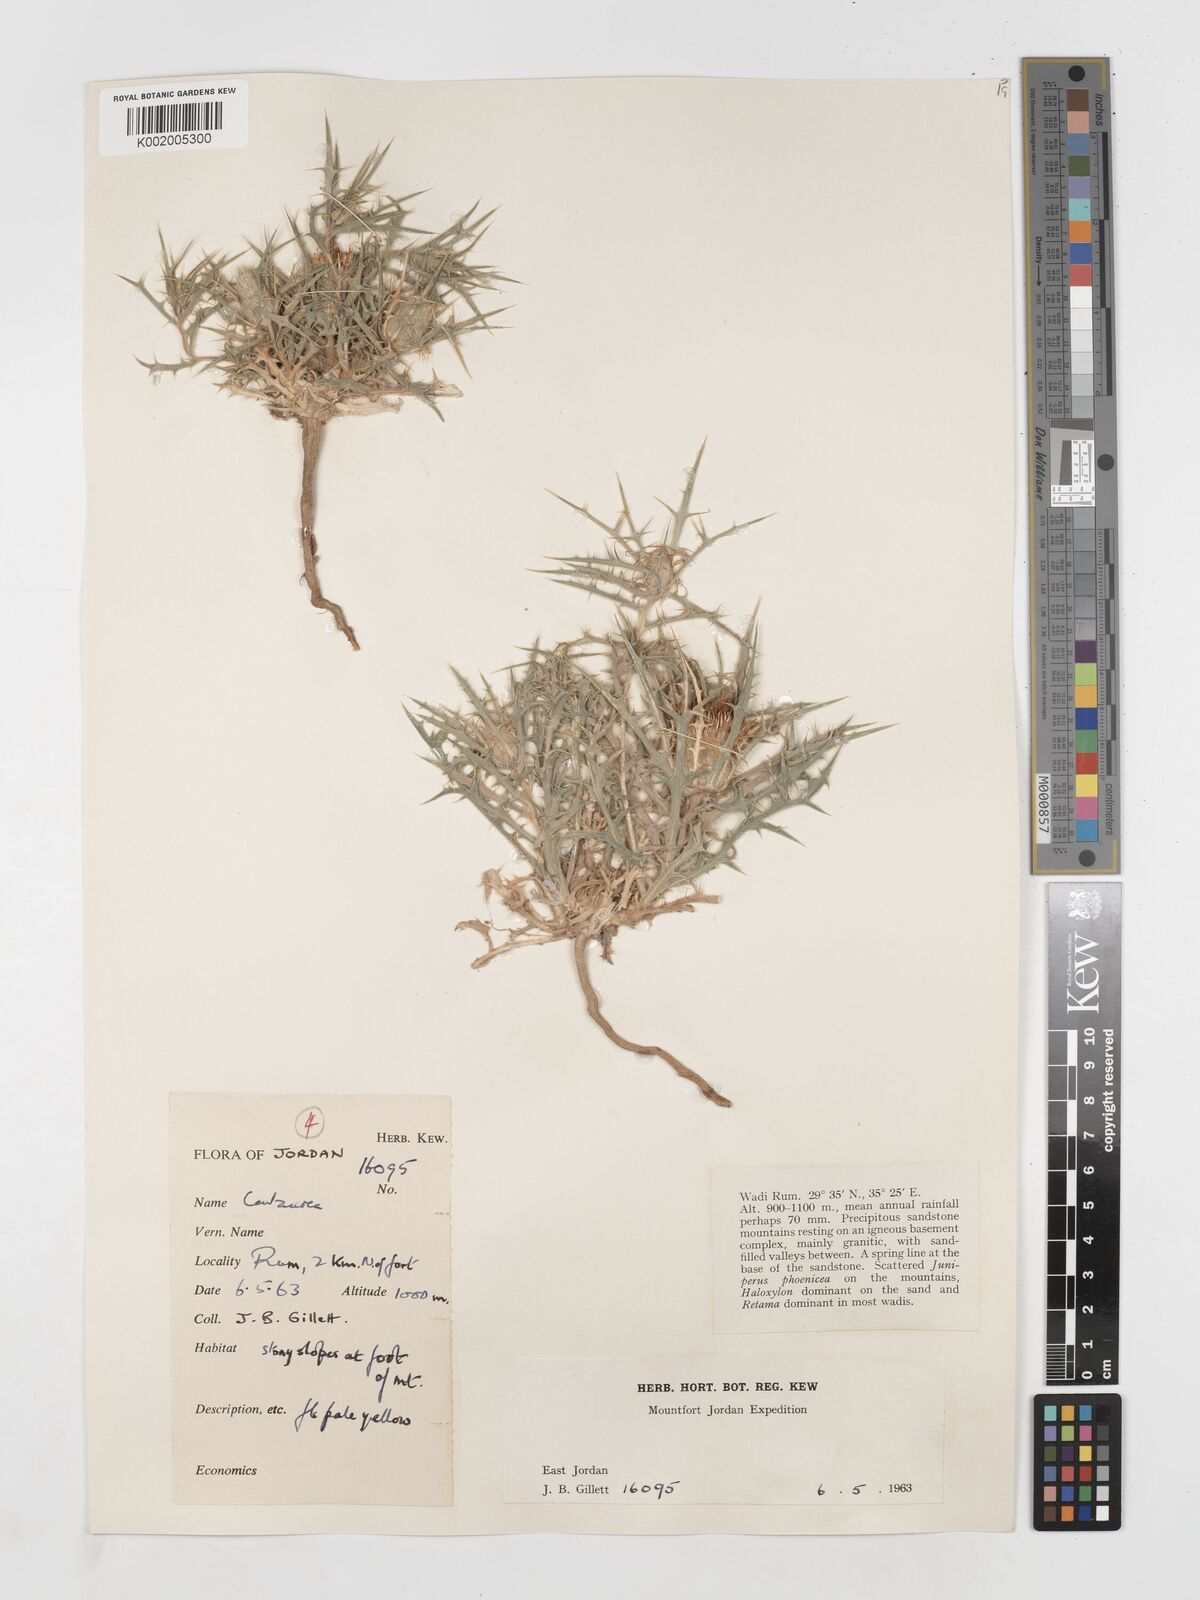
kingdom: Plantae
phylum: Tracheophyta
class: Magnoliopsida
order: Asterales
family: Asteraceae
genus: Atractylis
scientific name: Atractylis carduus
